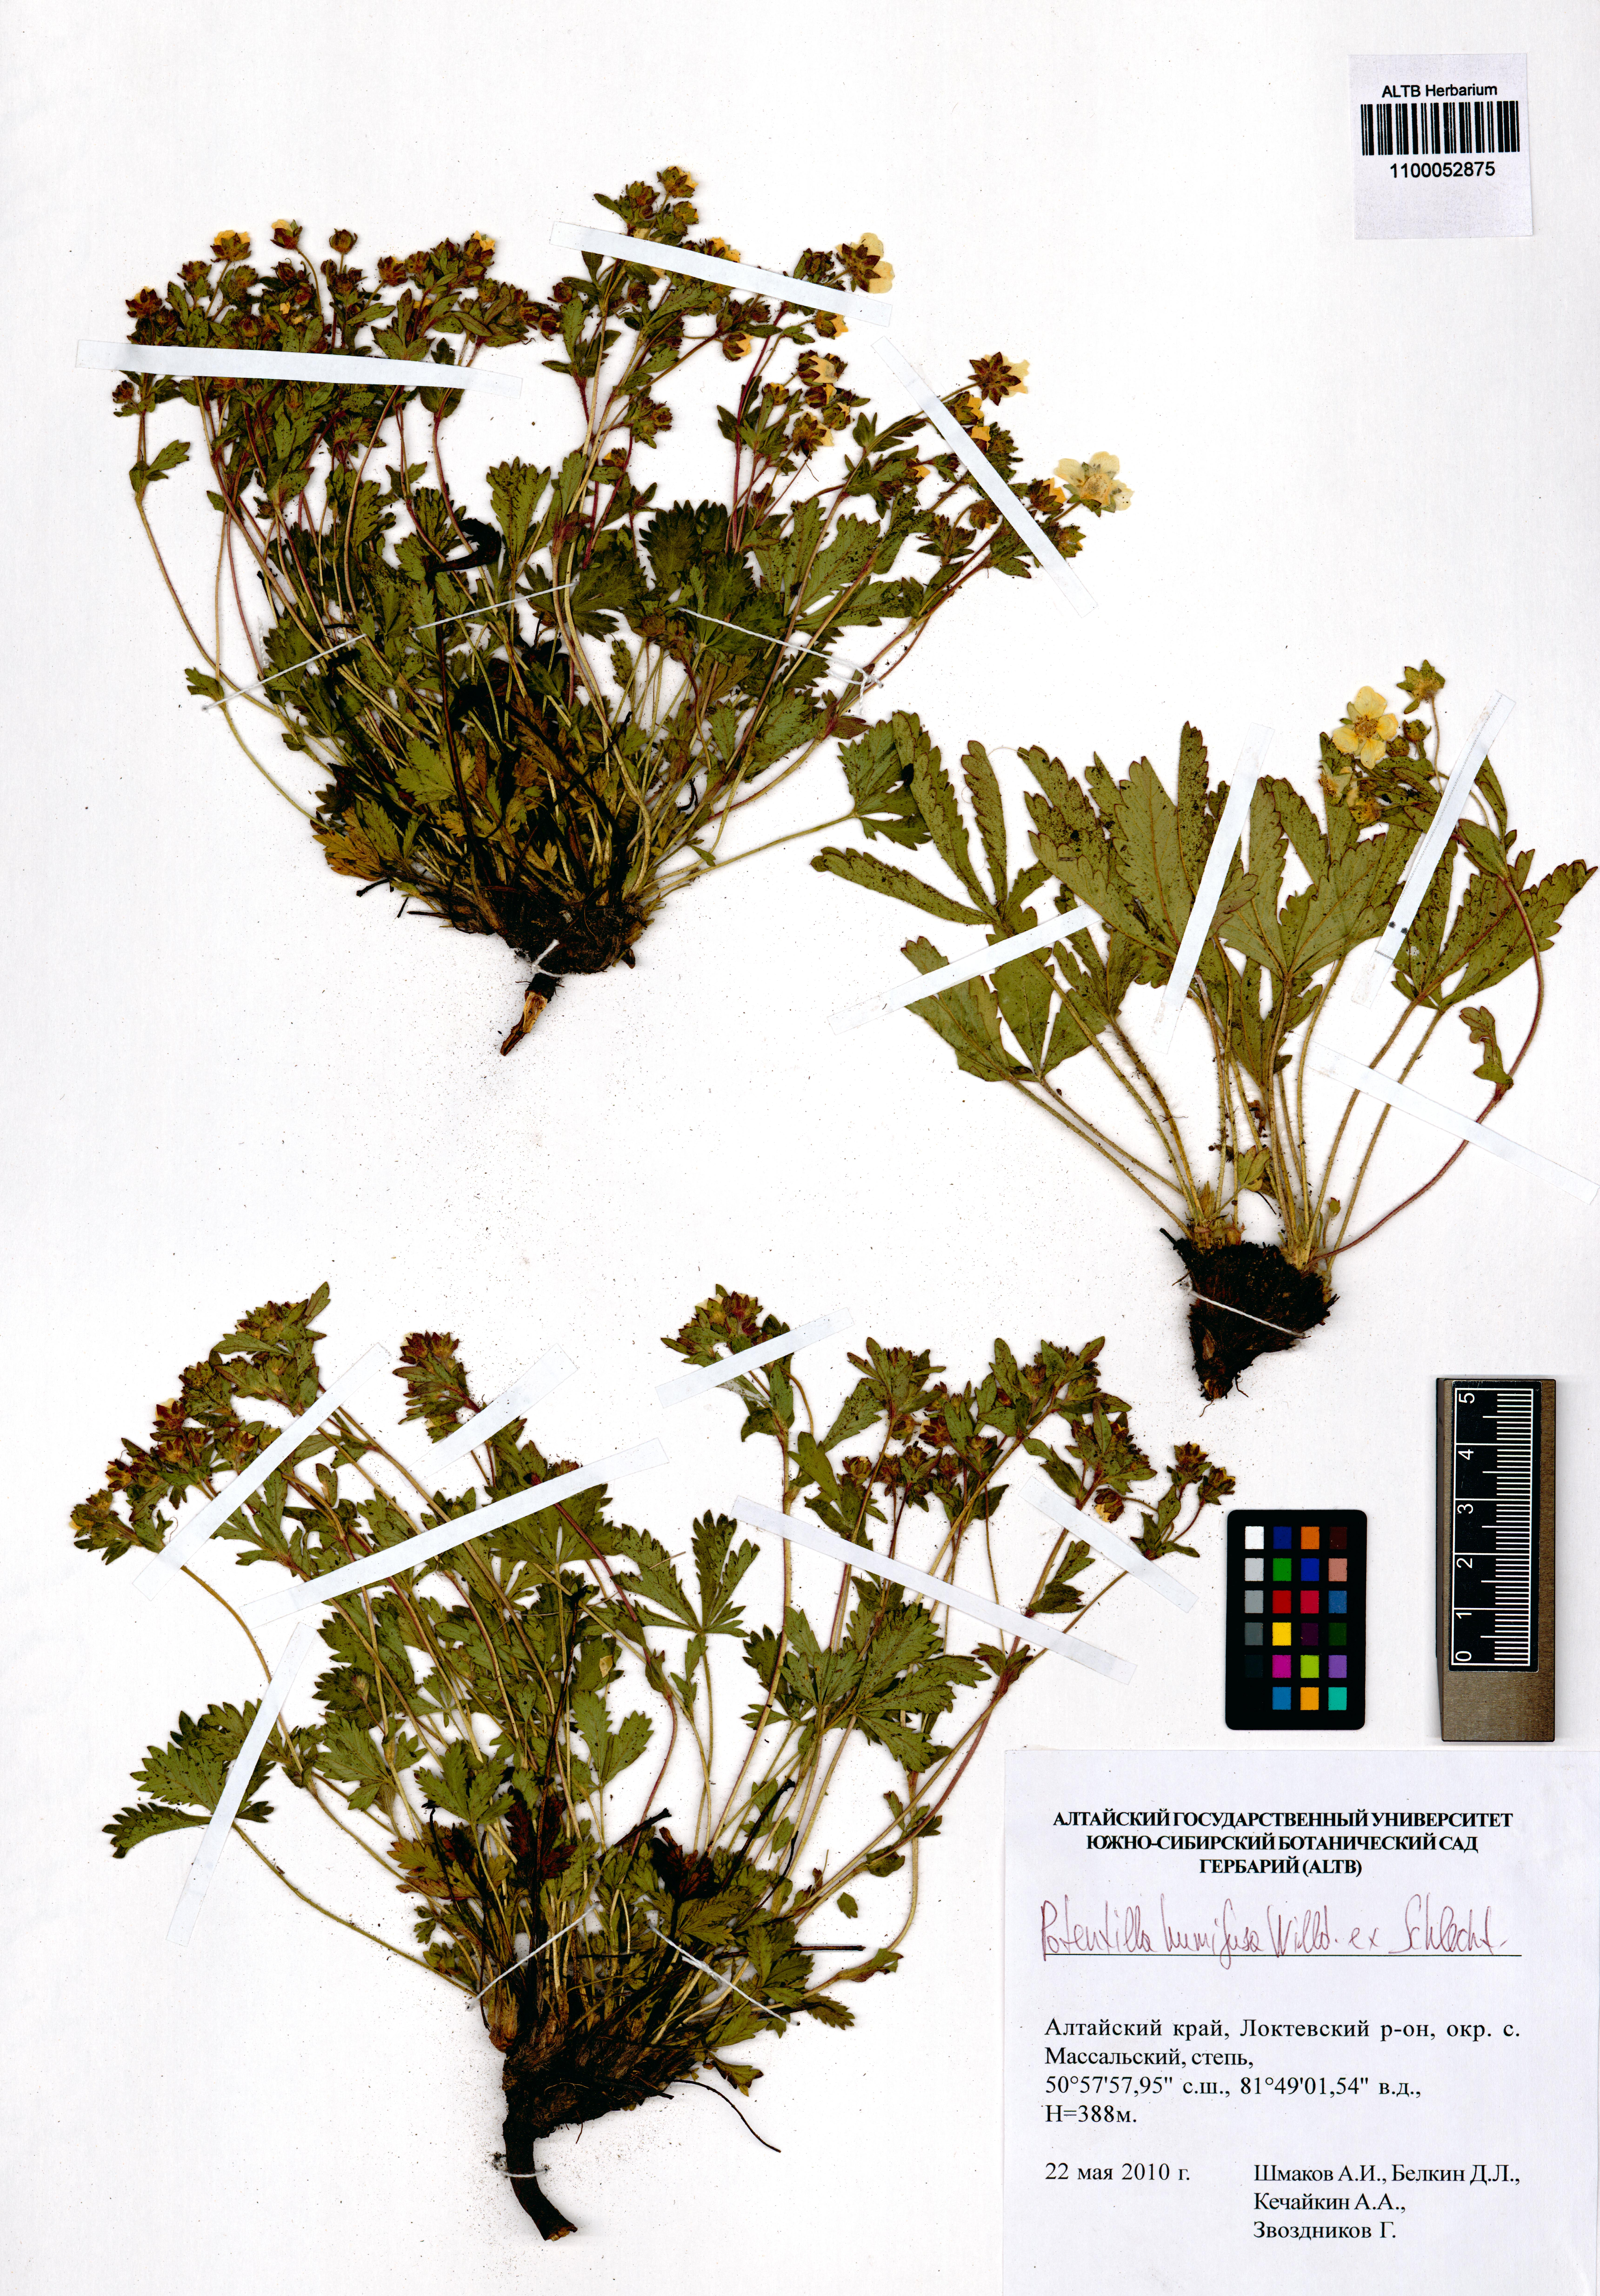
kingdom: Plantae
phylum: Tracheophyta
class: Magnoliopsida
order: Rosales
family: Rosaceae
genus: Potentilla
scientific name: Potentilla humifusa
